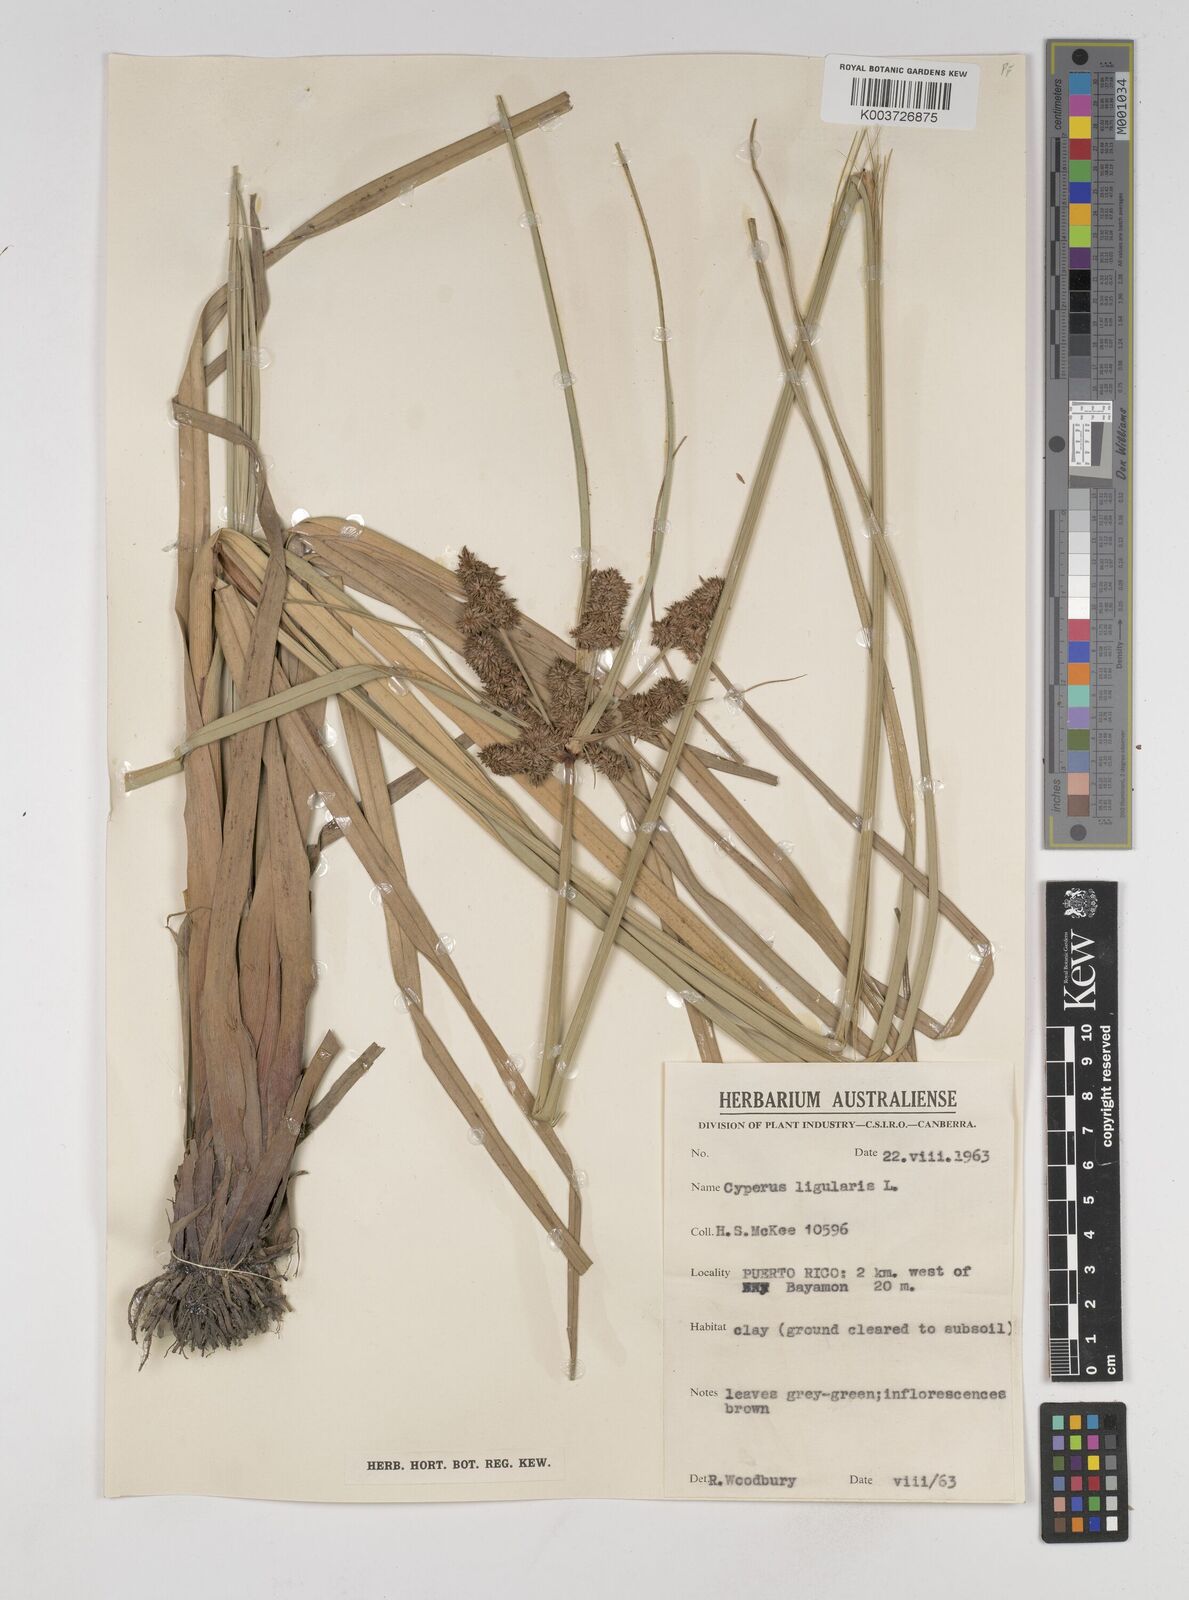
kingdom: Plantae
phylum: Tracheophyta
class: Liliopsida
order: Poales
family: Cyperaceae
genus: Cyperus
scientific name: Cyperus ligularis
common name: Swamp flat sedge
